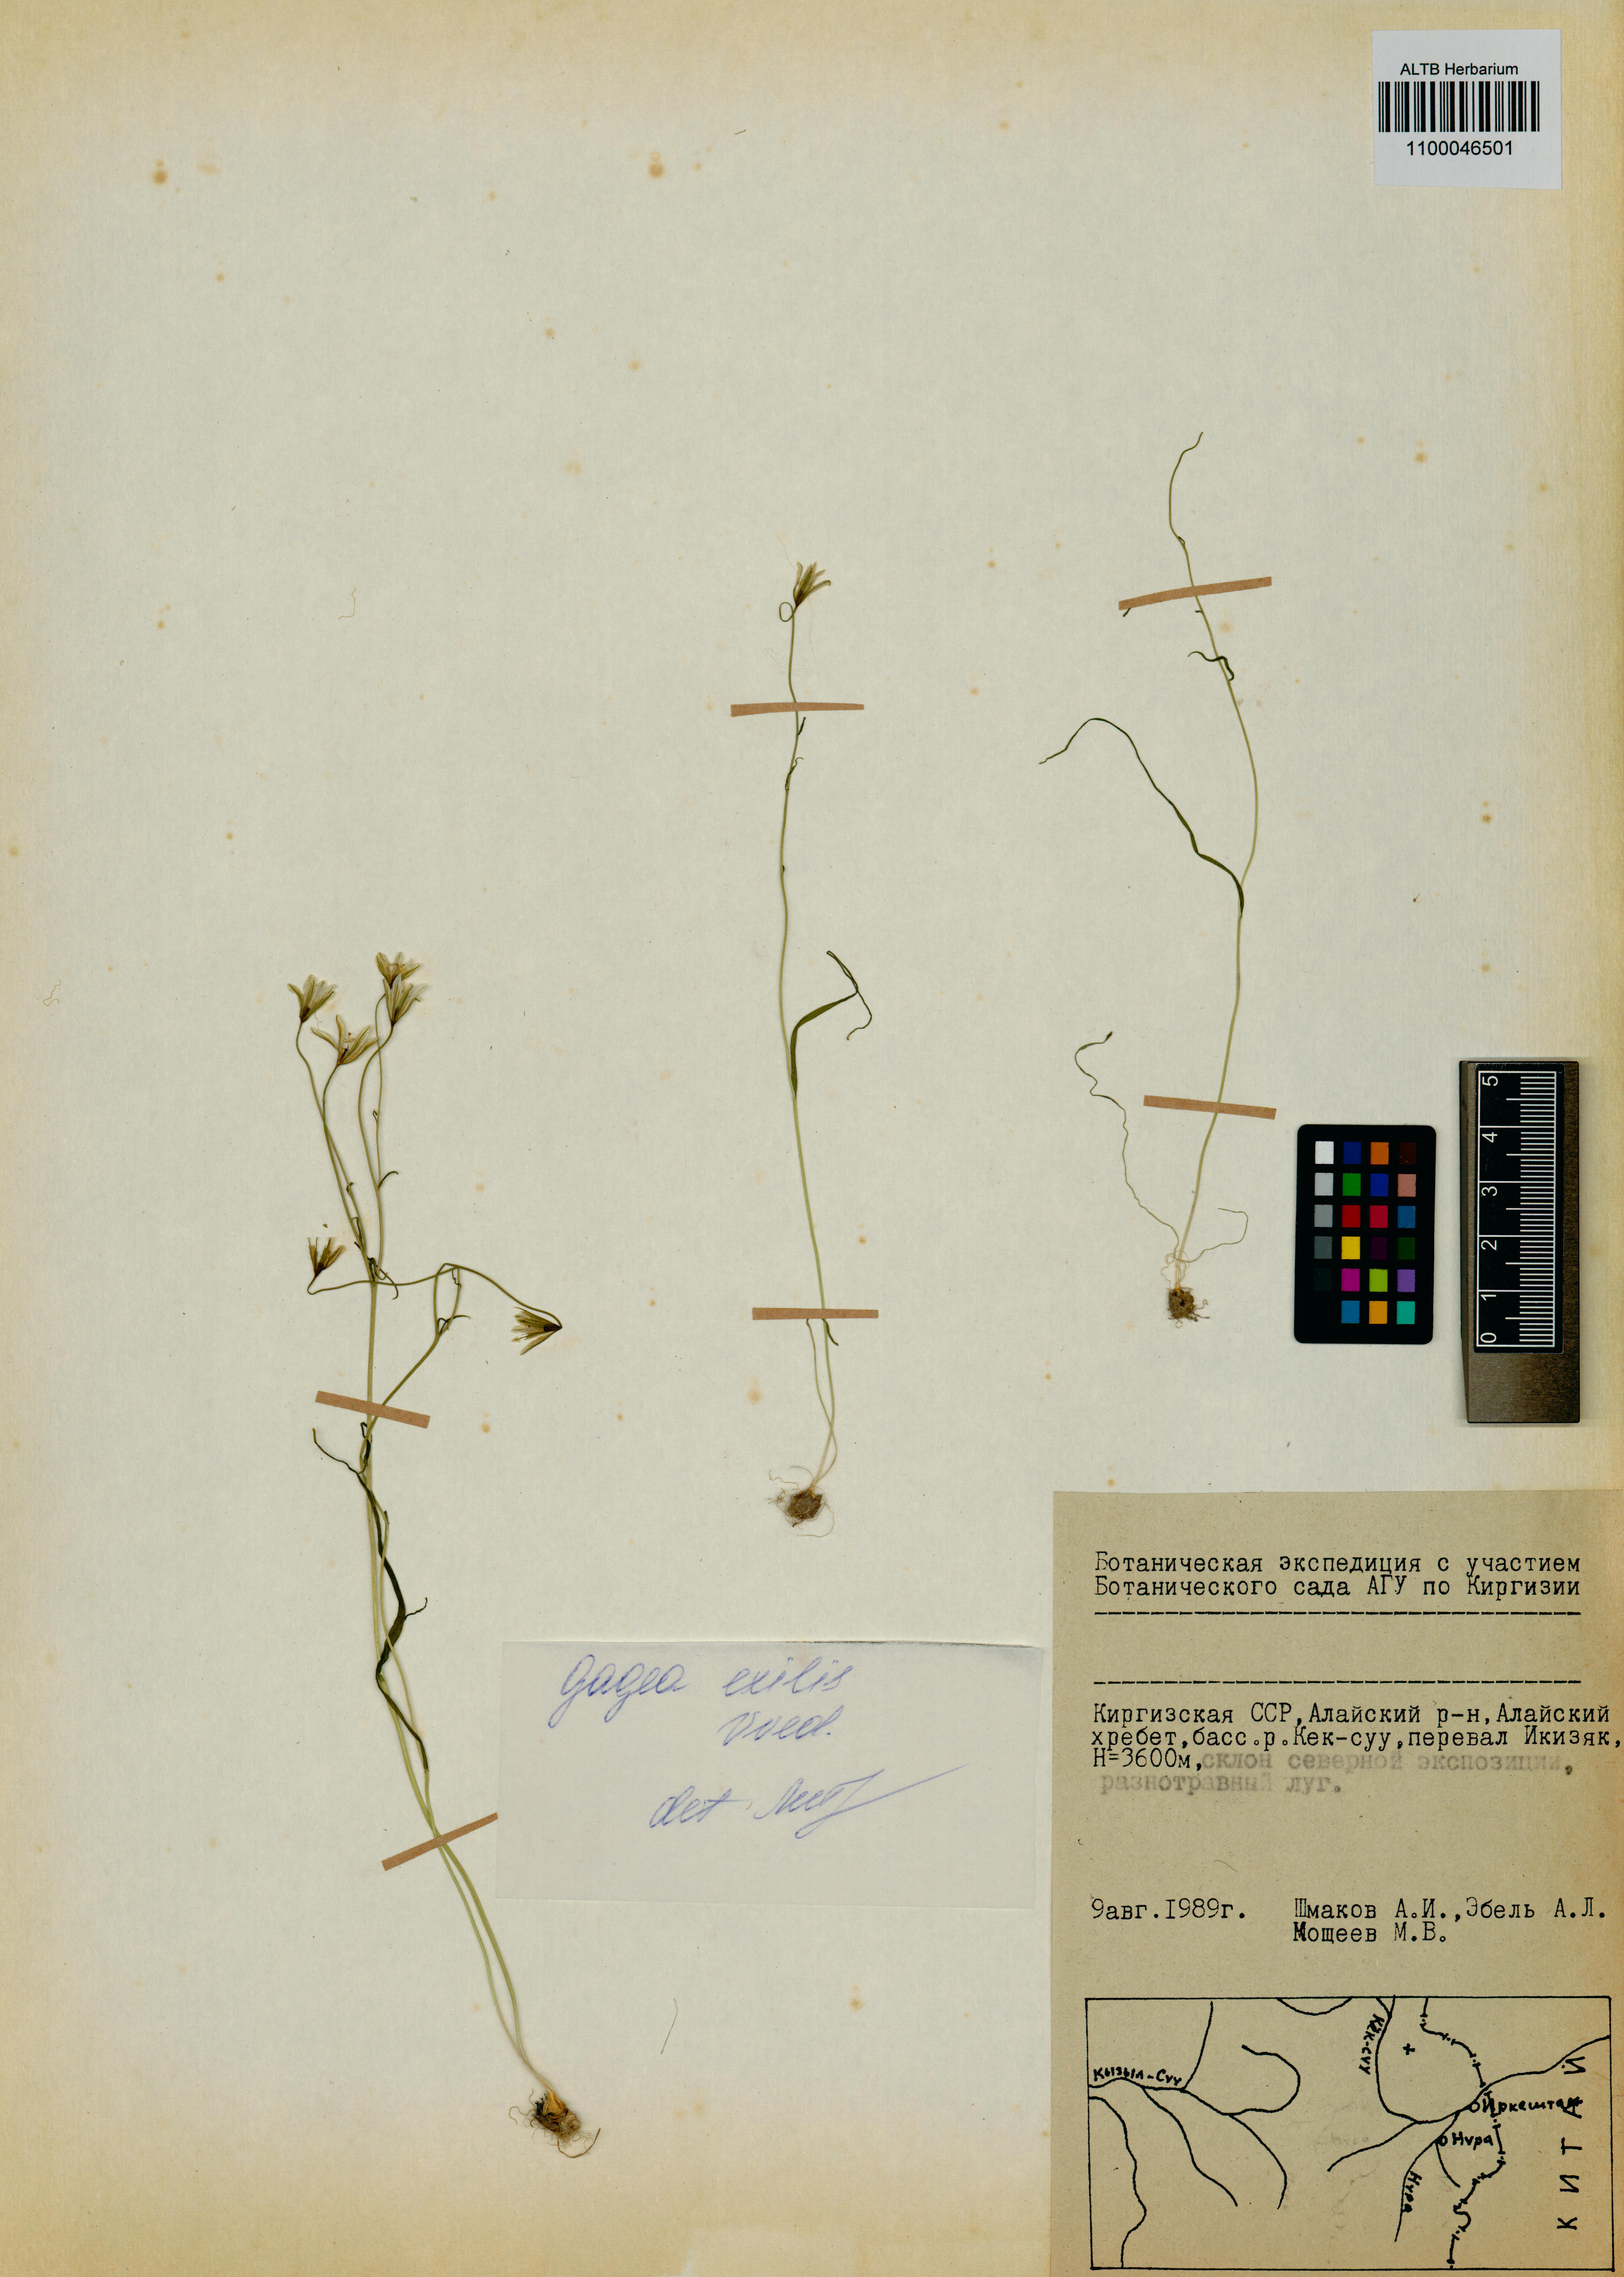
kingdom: Plantae
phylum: Tracheophyta
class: Liliopsida
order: Liliales
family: Liliaceae
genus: Gagea
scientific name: Gagea exilis
